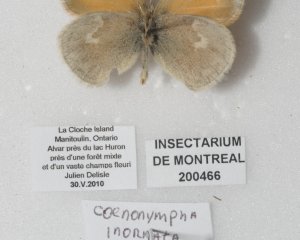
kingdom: Animalia
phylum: Arthropoda
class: Insecta
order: Lepidoptera
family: Nymphalidae
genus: Coenonympha
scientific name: Coenonympha tullia
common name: Large Heath
